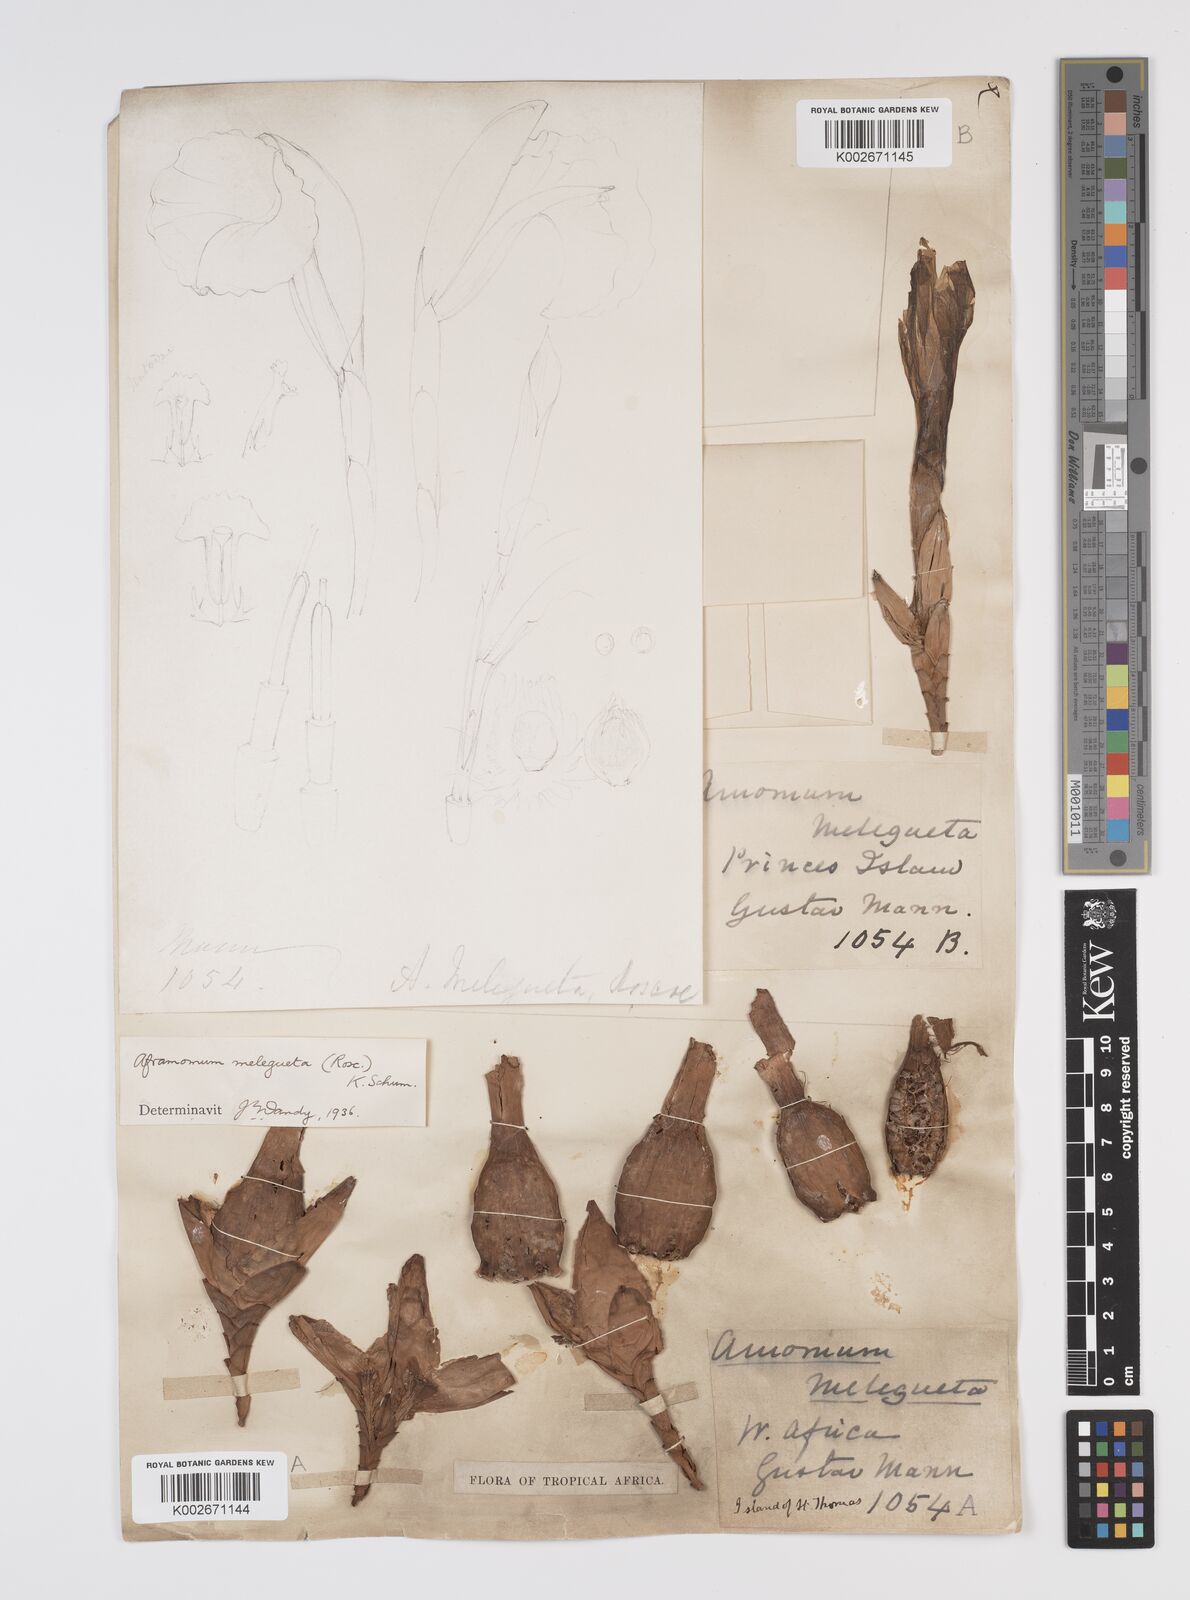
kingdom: Plantae
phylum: Tracheophyta
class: Liliopsida
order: Zingiberales
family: Zingiberaceae
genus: Aframomum
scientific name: Aframomum melegueta
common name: Grains of paradise
